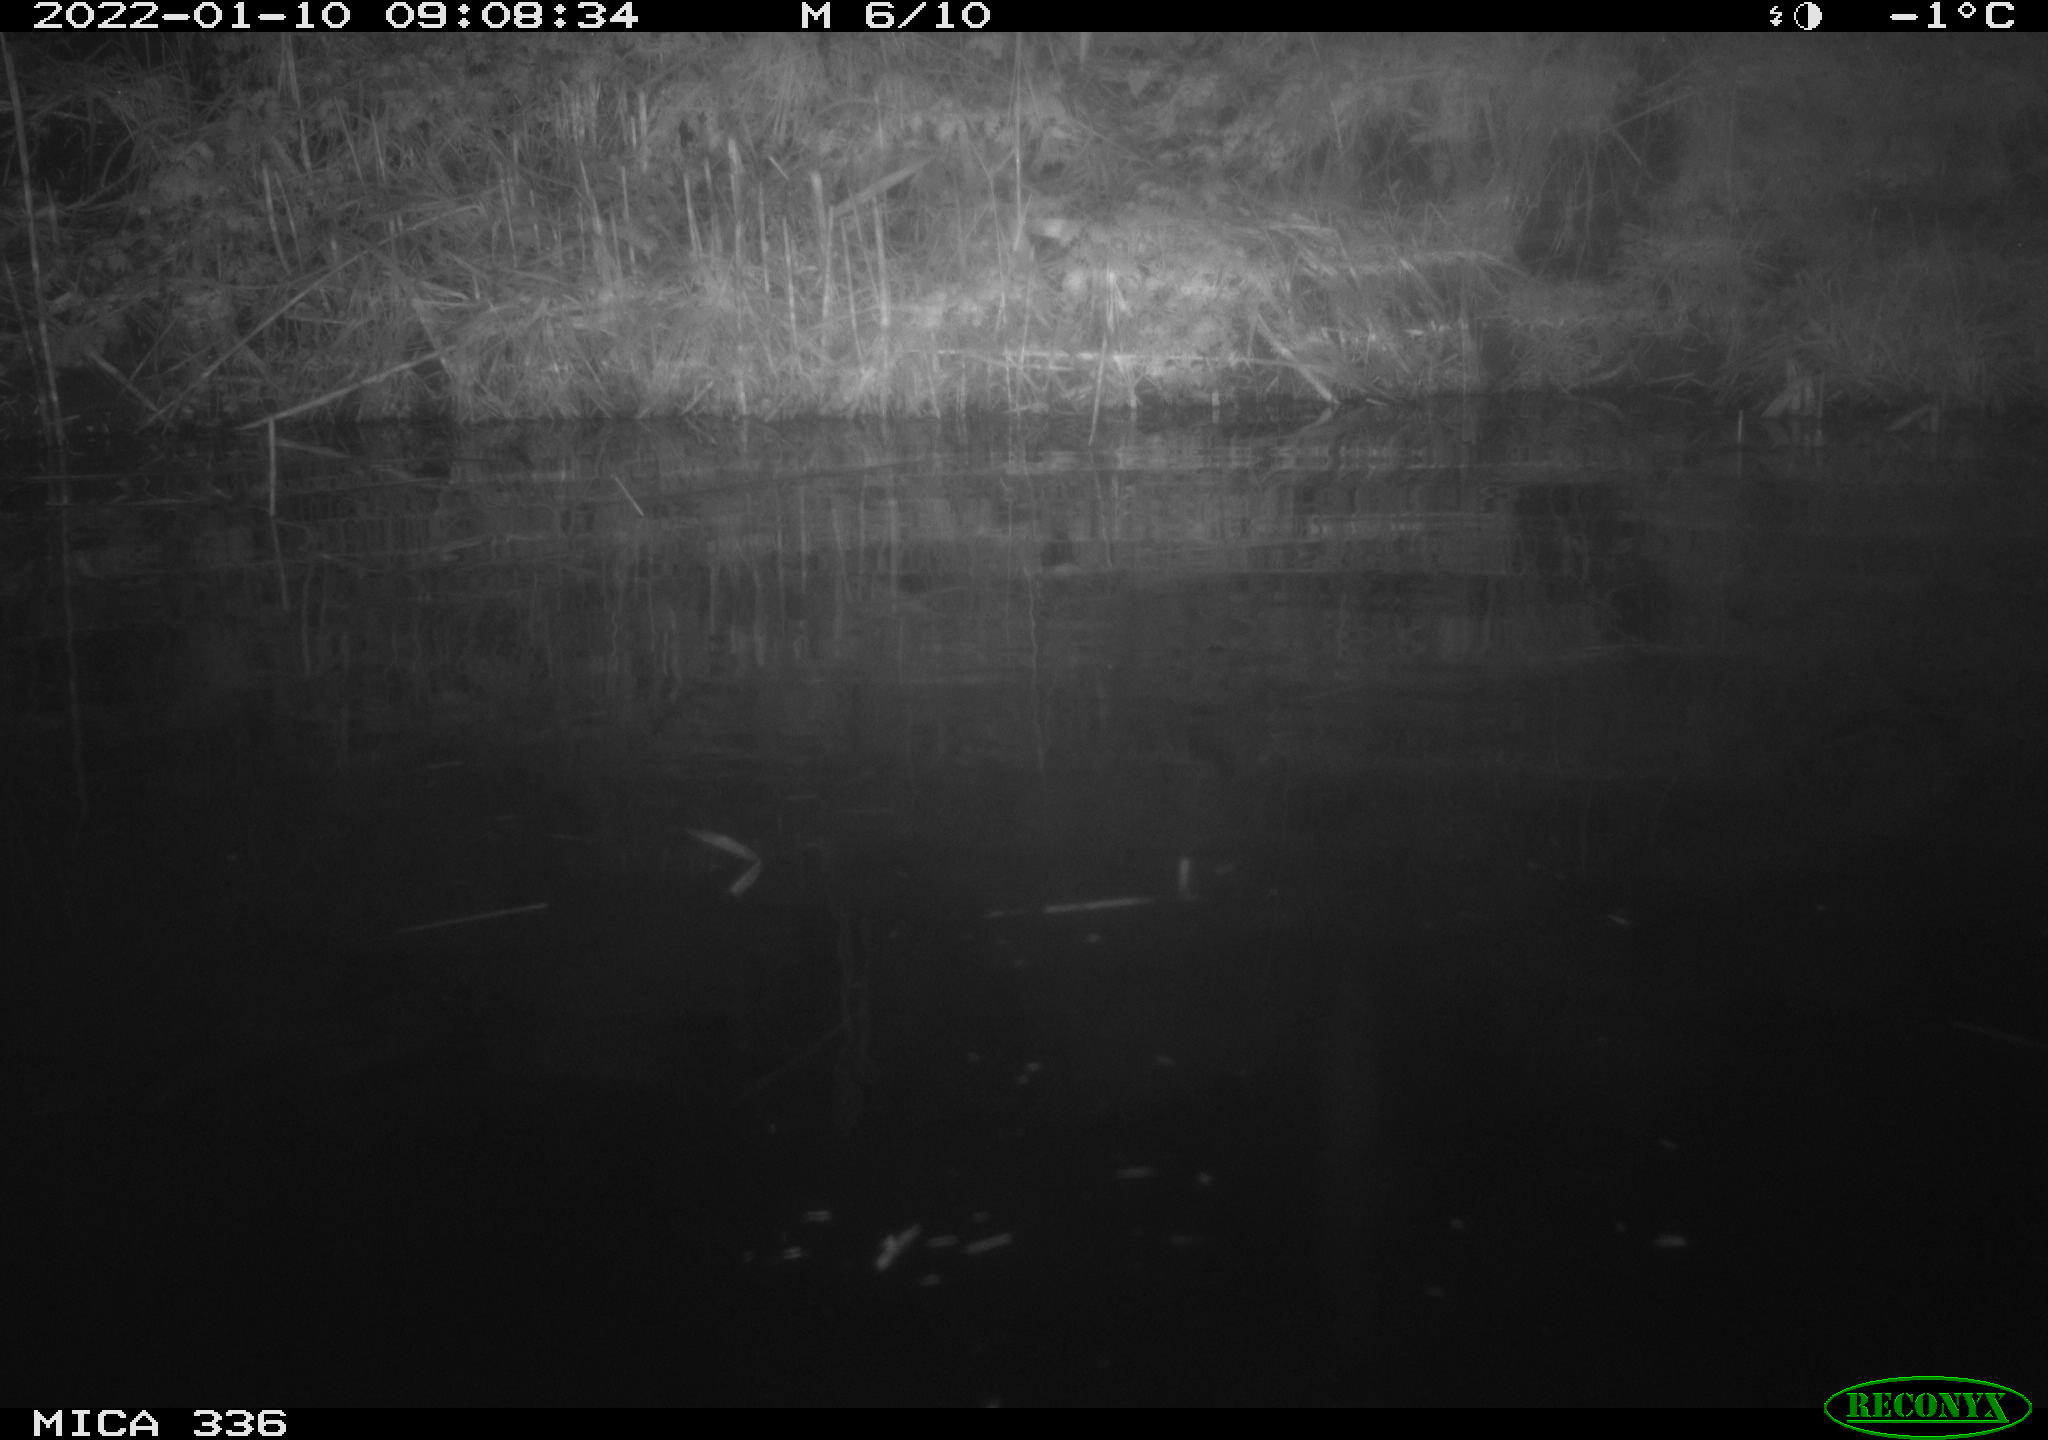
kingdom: Animalia
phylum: Chordata
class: Aves
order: Anseriformes
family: Anatidae
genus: Anas
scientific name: Anas platyrhynchos
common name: Mallard
